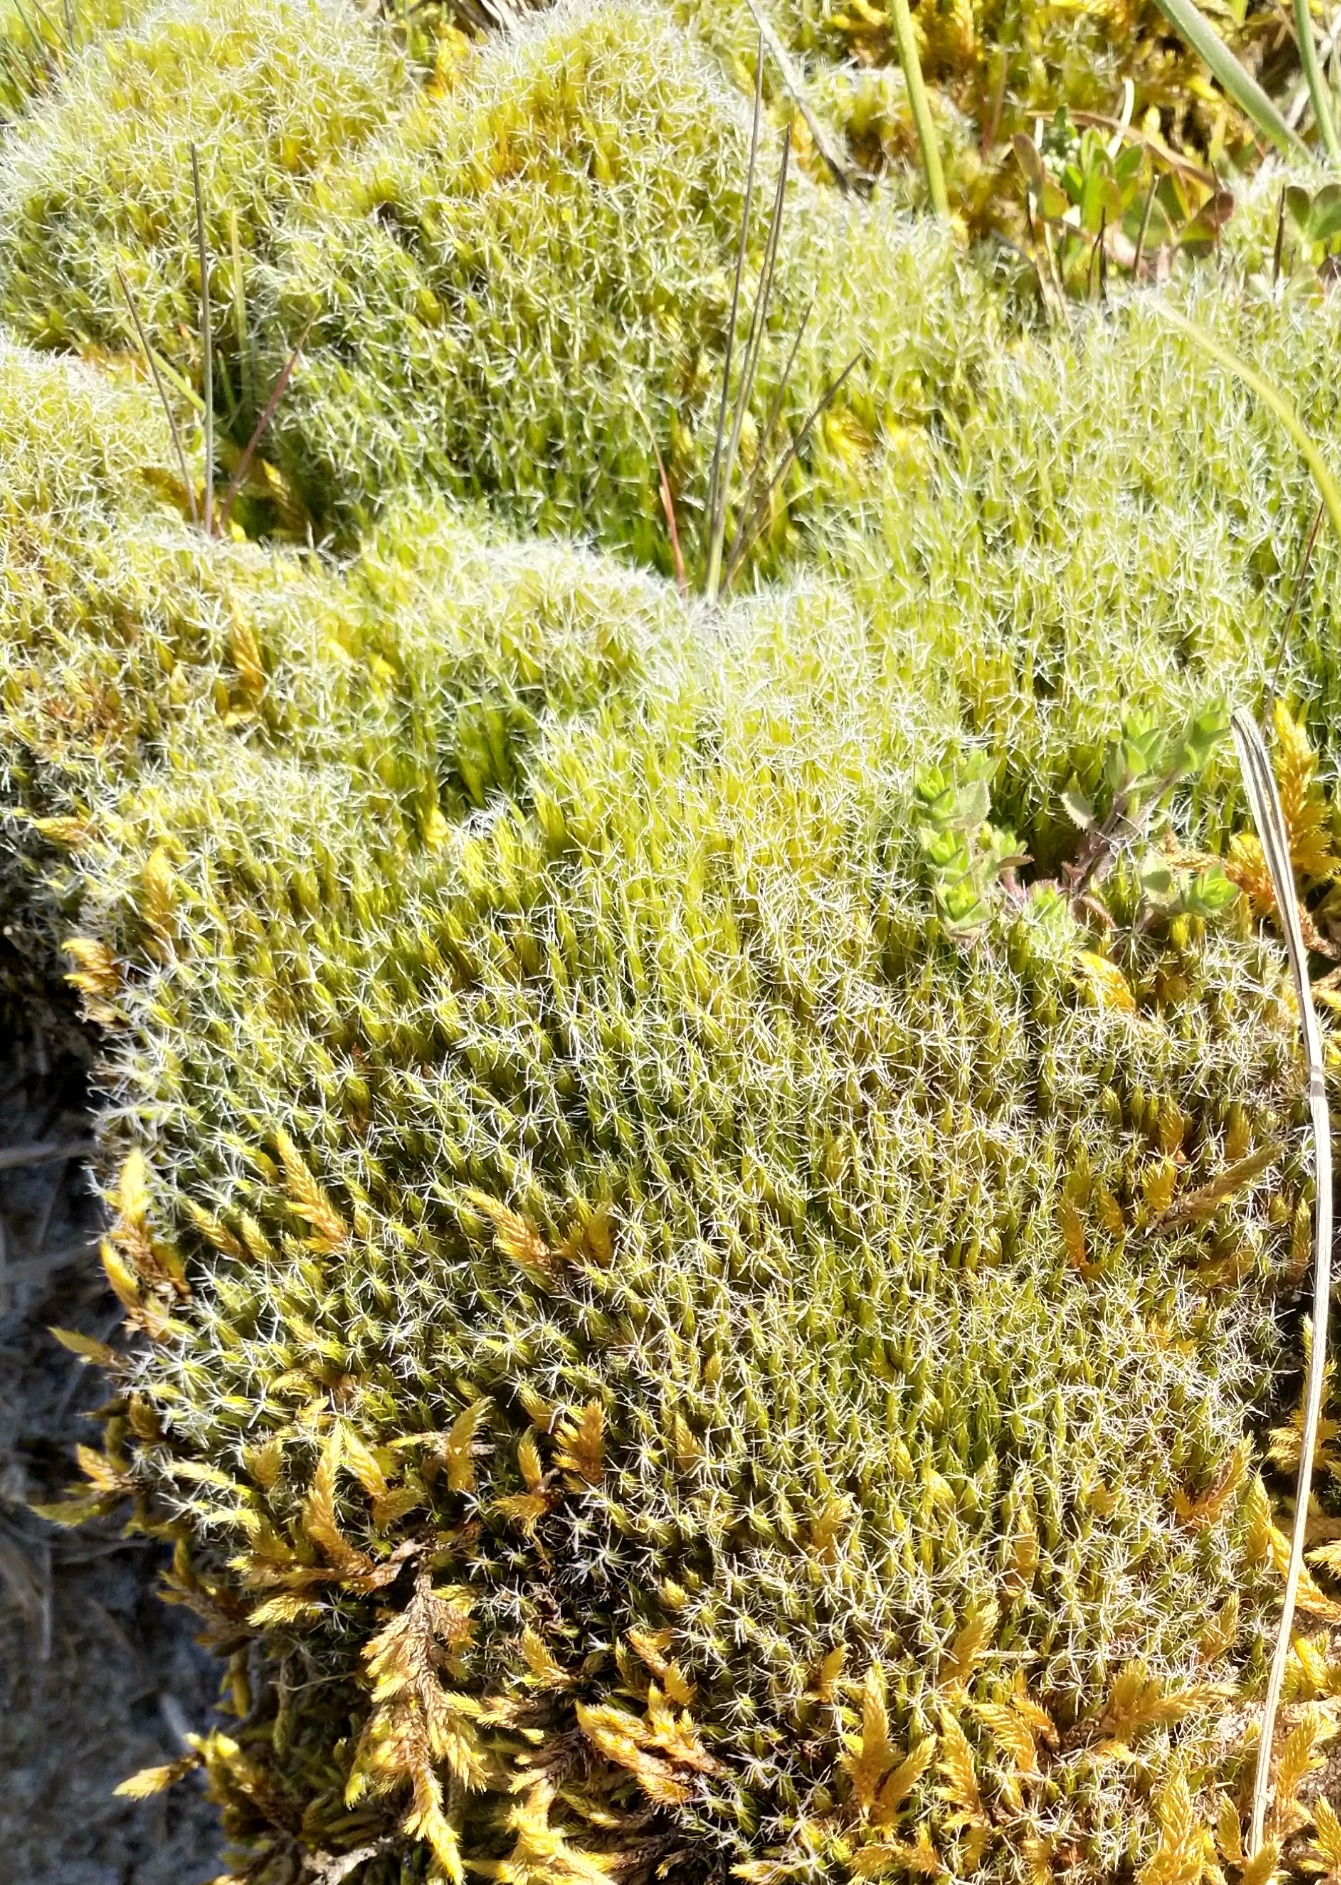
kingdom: Plantae
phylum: Bryophyta
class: Bryopsida
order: Dicranales
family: Leucobryaceae
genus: Campylopus
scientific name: Campylopus introflexus
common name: Stjerne-bredribbe
